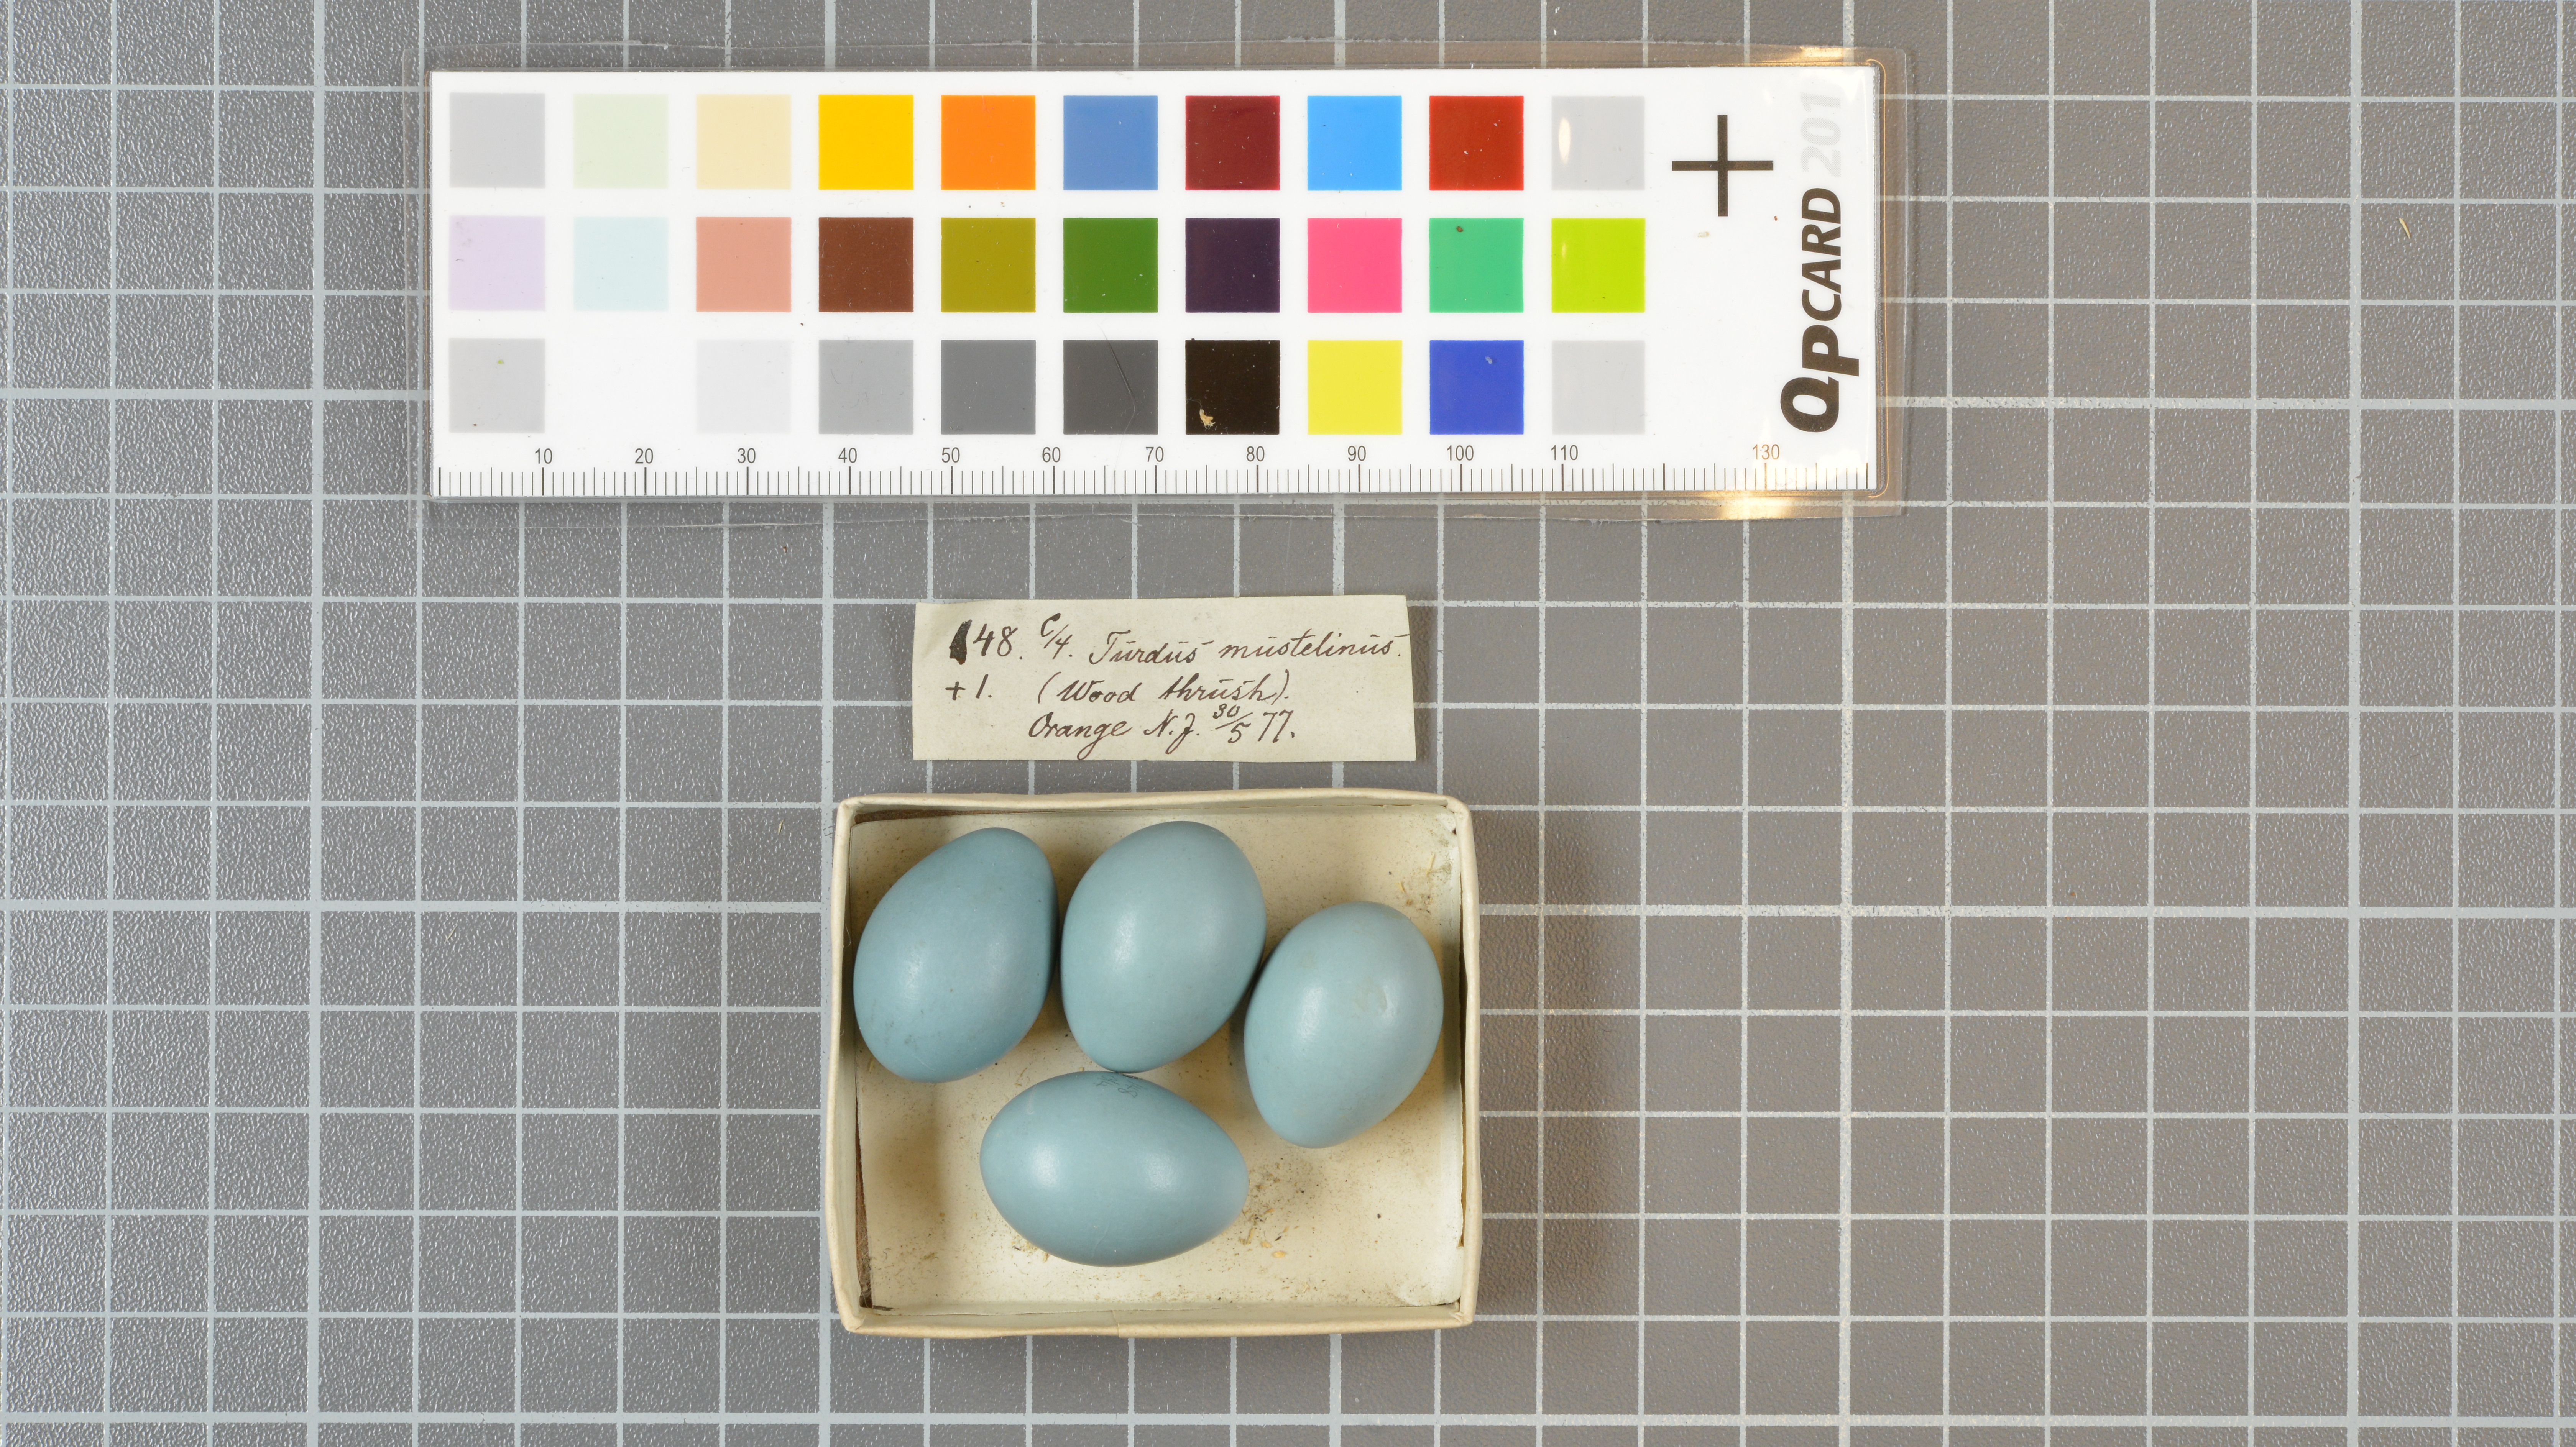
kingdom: Animalia
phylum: Chordata
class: Aves
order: Passeriformes
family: Turdidae
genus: Hylocichla
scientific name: Hylocichla mustelina
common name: Wood thrush
